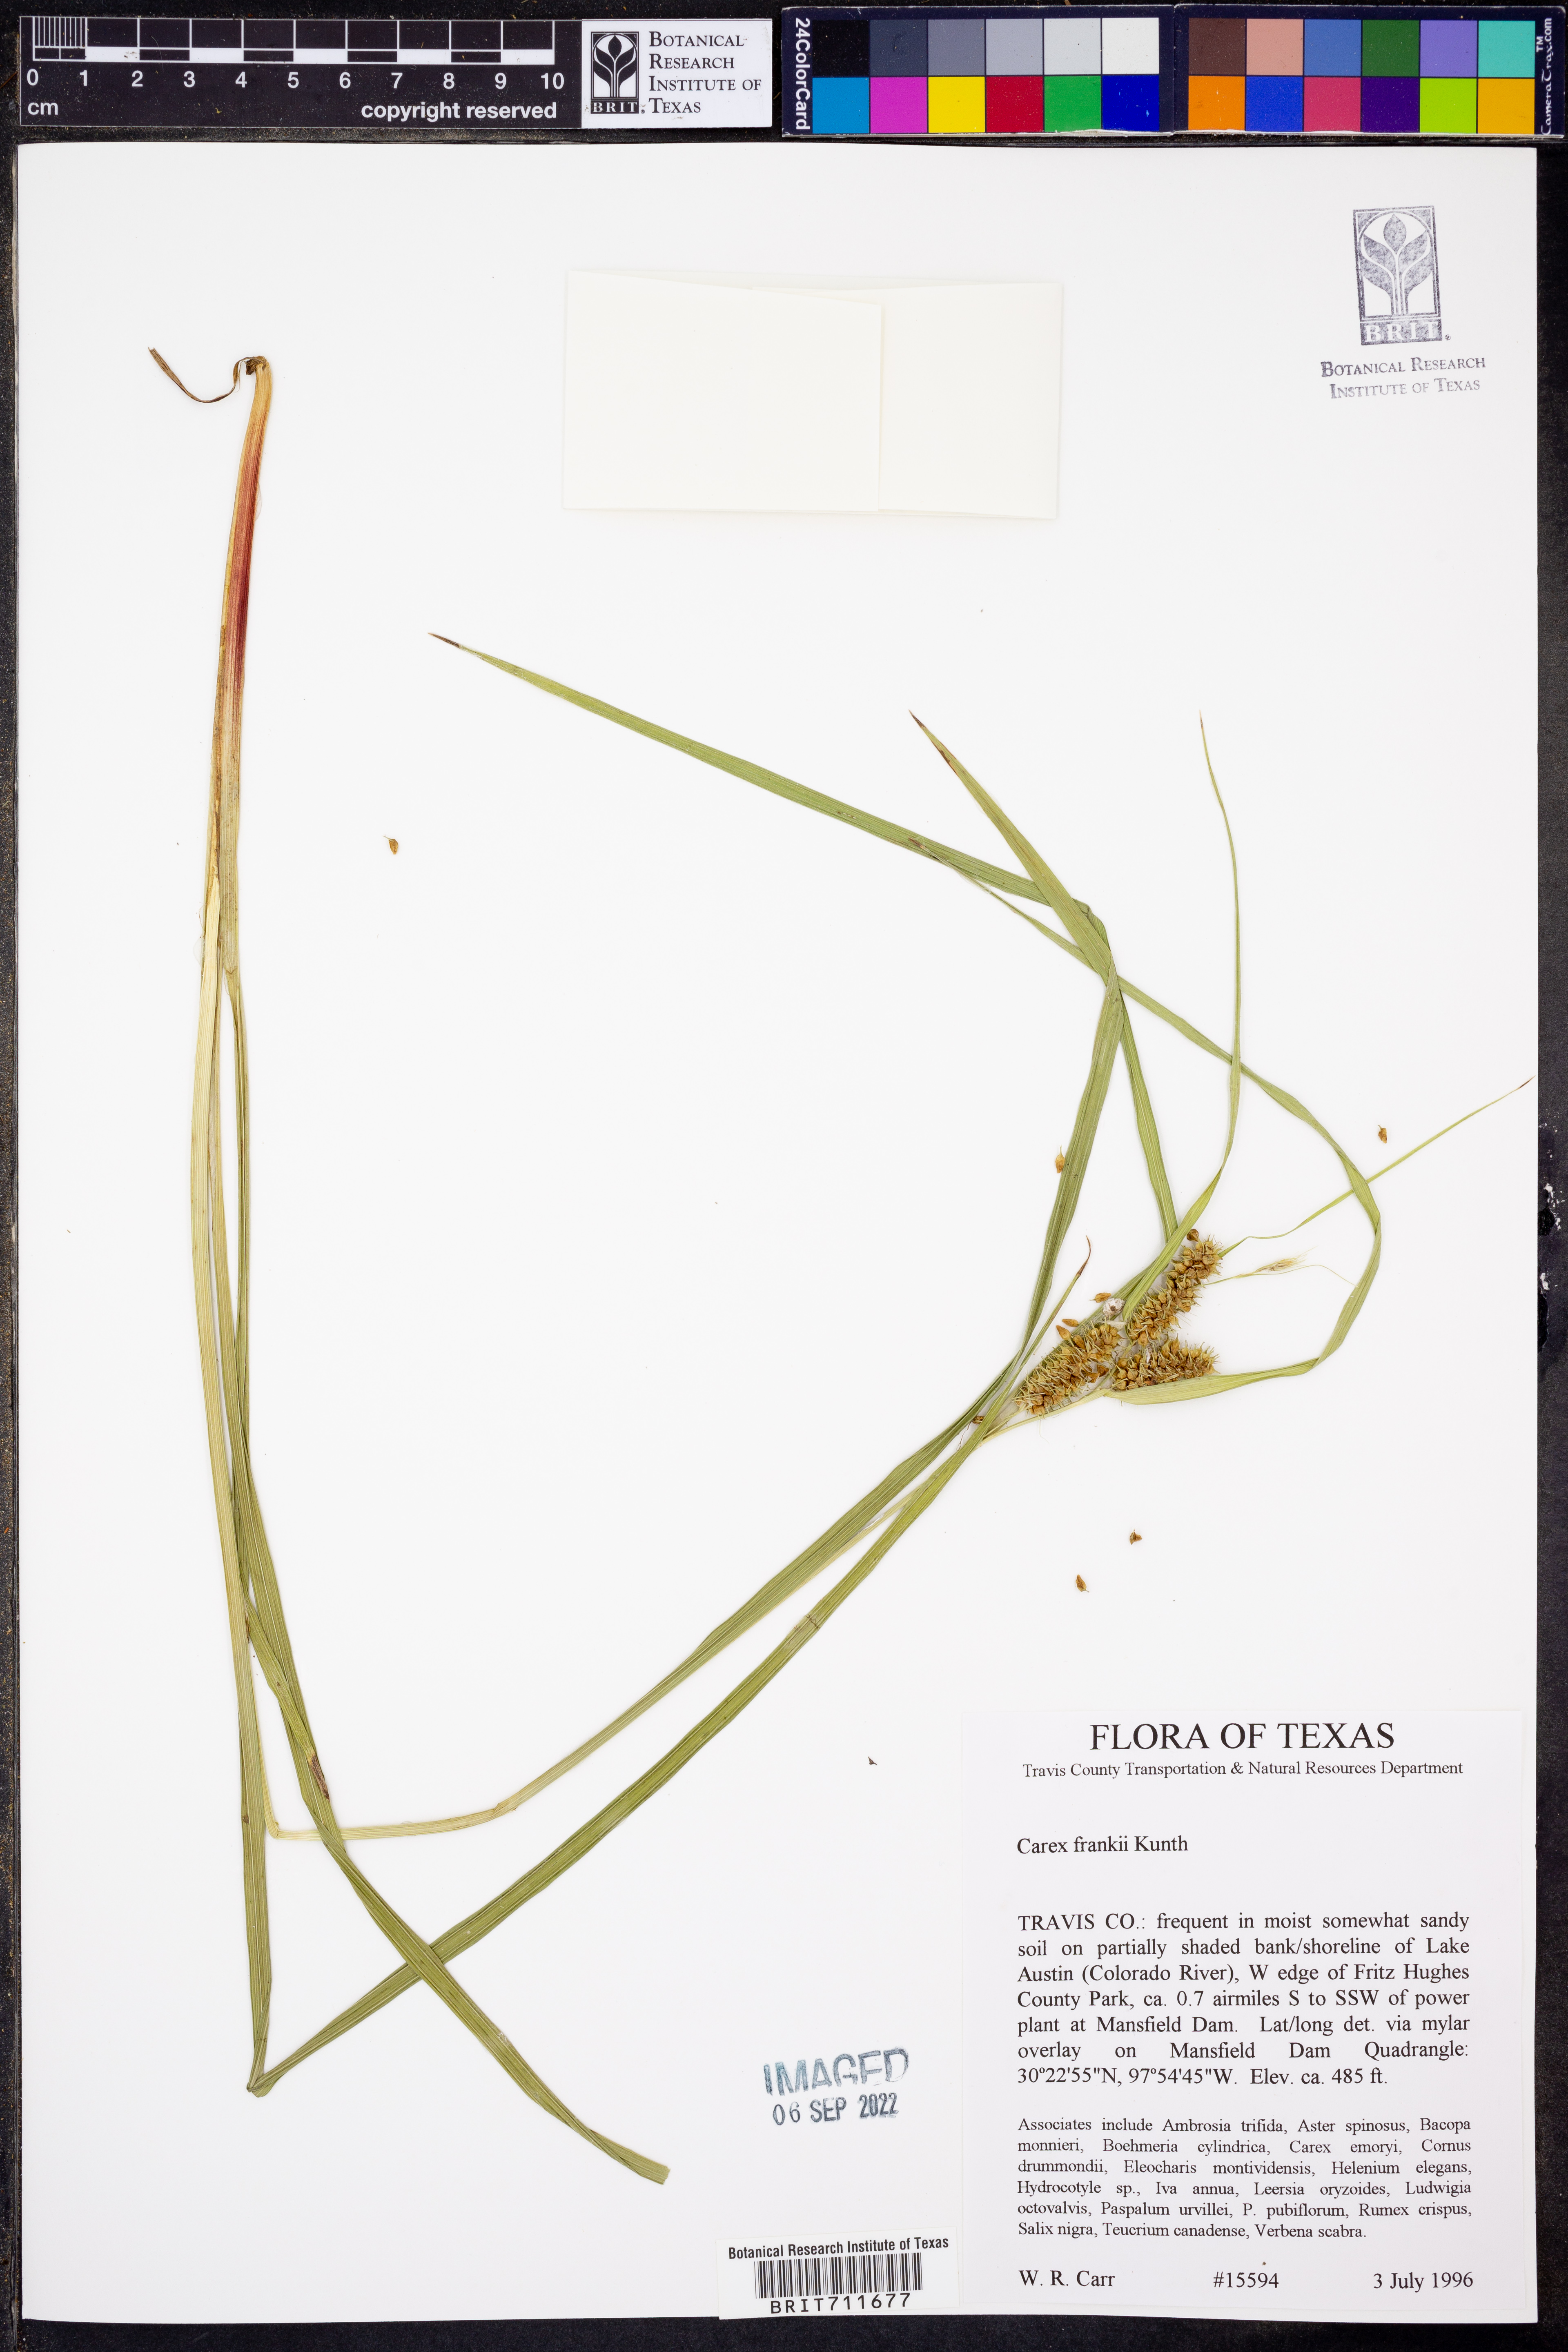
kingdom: Plantae
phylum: Tracheophyta
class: Liliopsida
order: Poales
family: Cyperaceae
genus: Carex
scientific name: Carex frankii
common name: Frank's sedge
